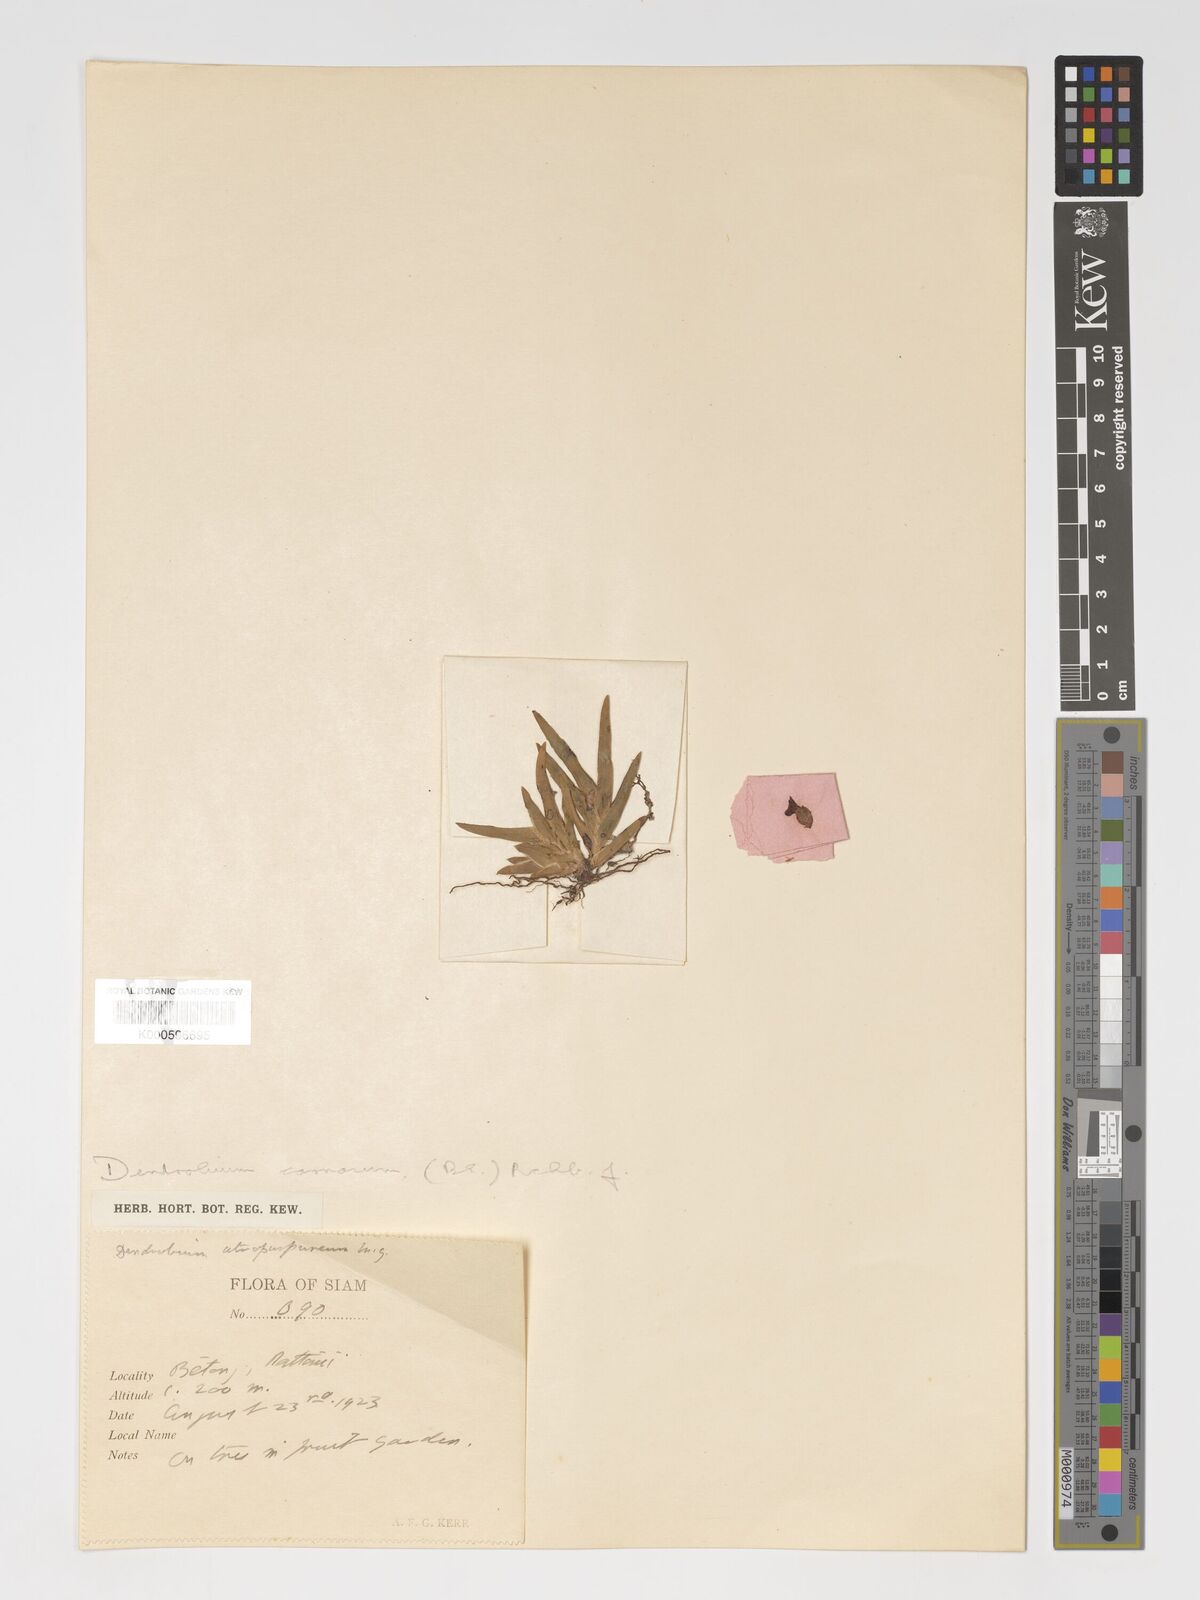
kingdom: Plantae
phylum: Tracheophyta
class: Liliopsida
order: Asparagales
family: Orchidaceae
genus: Oxystophyllum
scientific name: Oxystophyllum carnosum
